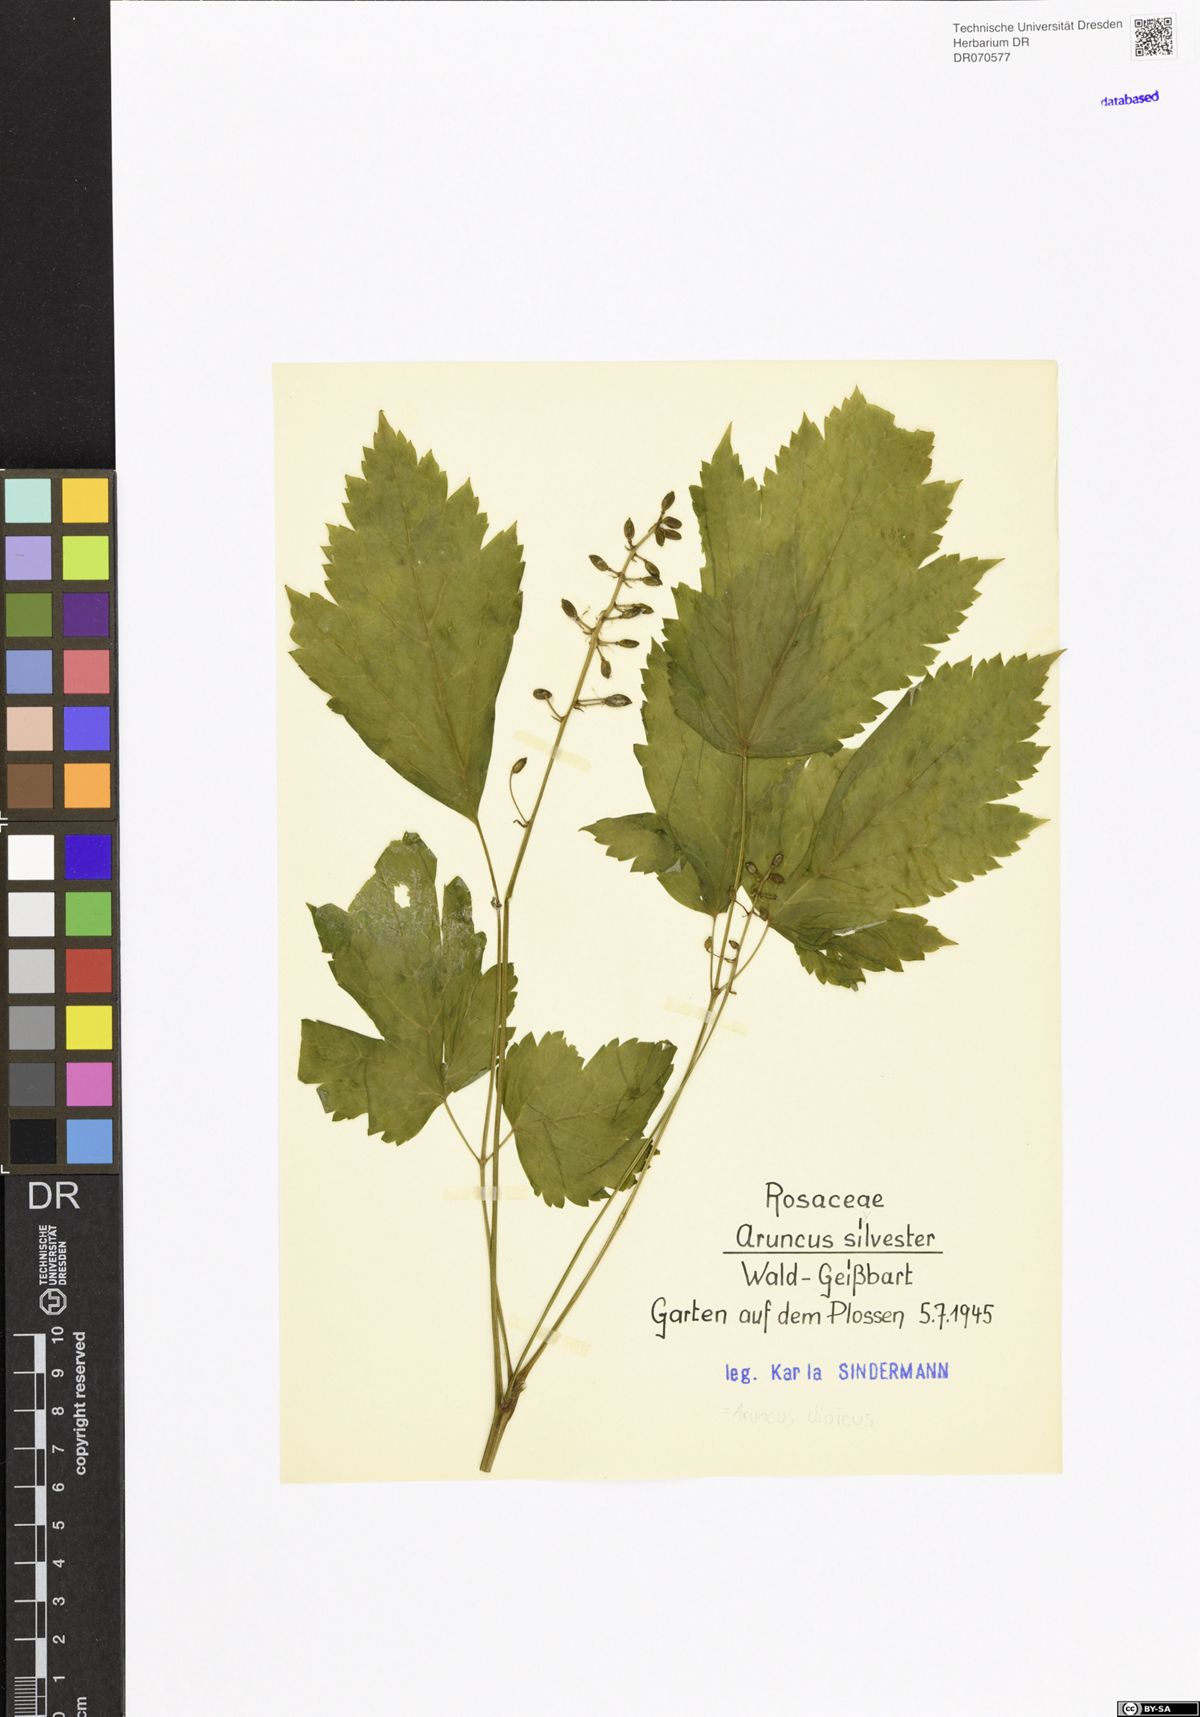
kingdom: Plantae
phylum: Tracheophyta
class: Magnoliopsida
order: Rosales
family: Rosaceae
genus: Aruncus
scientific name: Aruncus dioicus
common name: Buck's-beard
